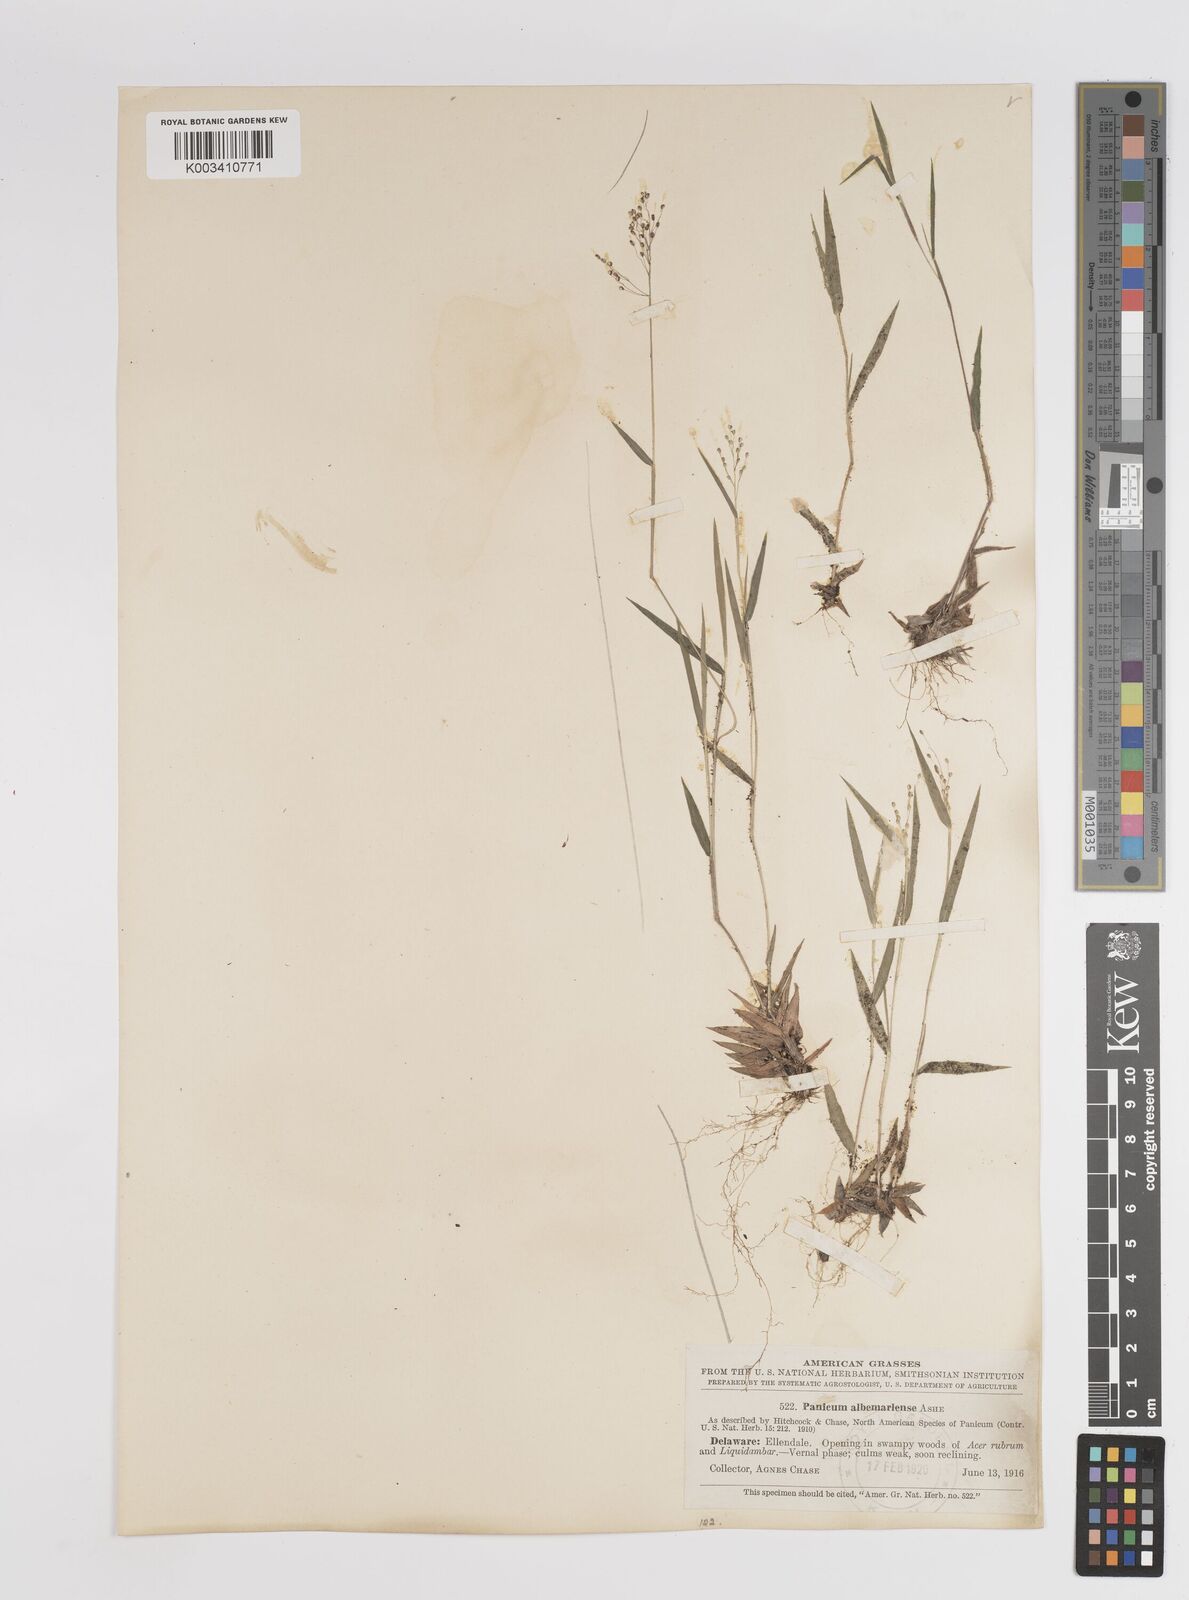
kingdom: Plantae
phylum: Tracheophyta
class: Liliopsida
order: Poales
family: Poaceae
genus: Dichanthelium
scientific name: Dichanthelium meridionale
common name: Mat panicgrass
